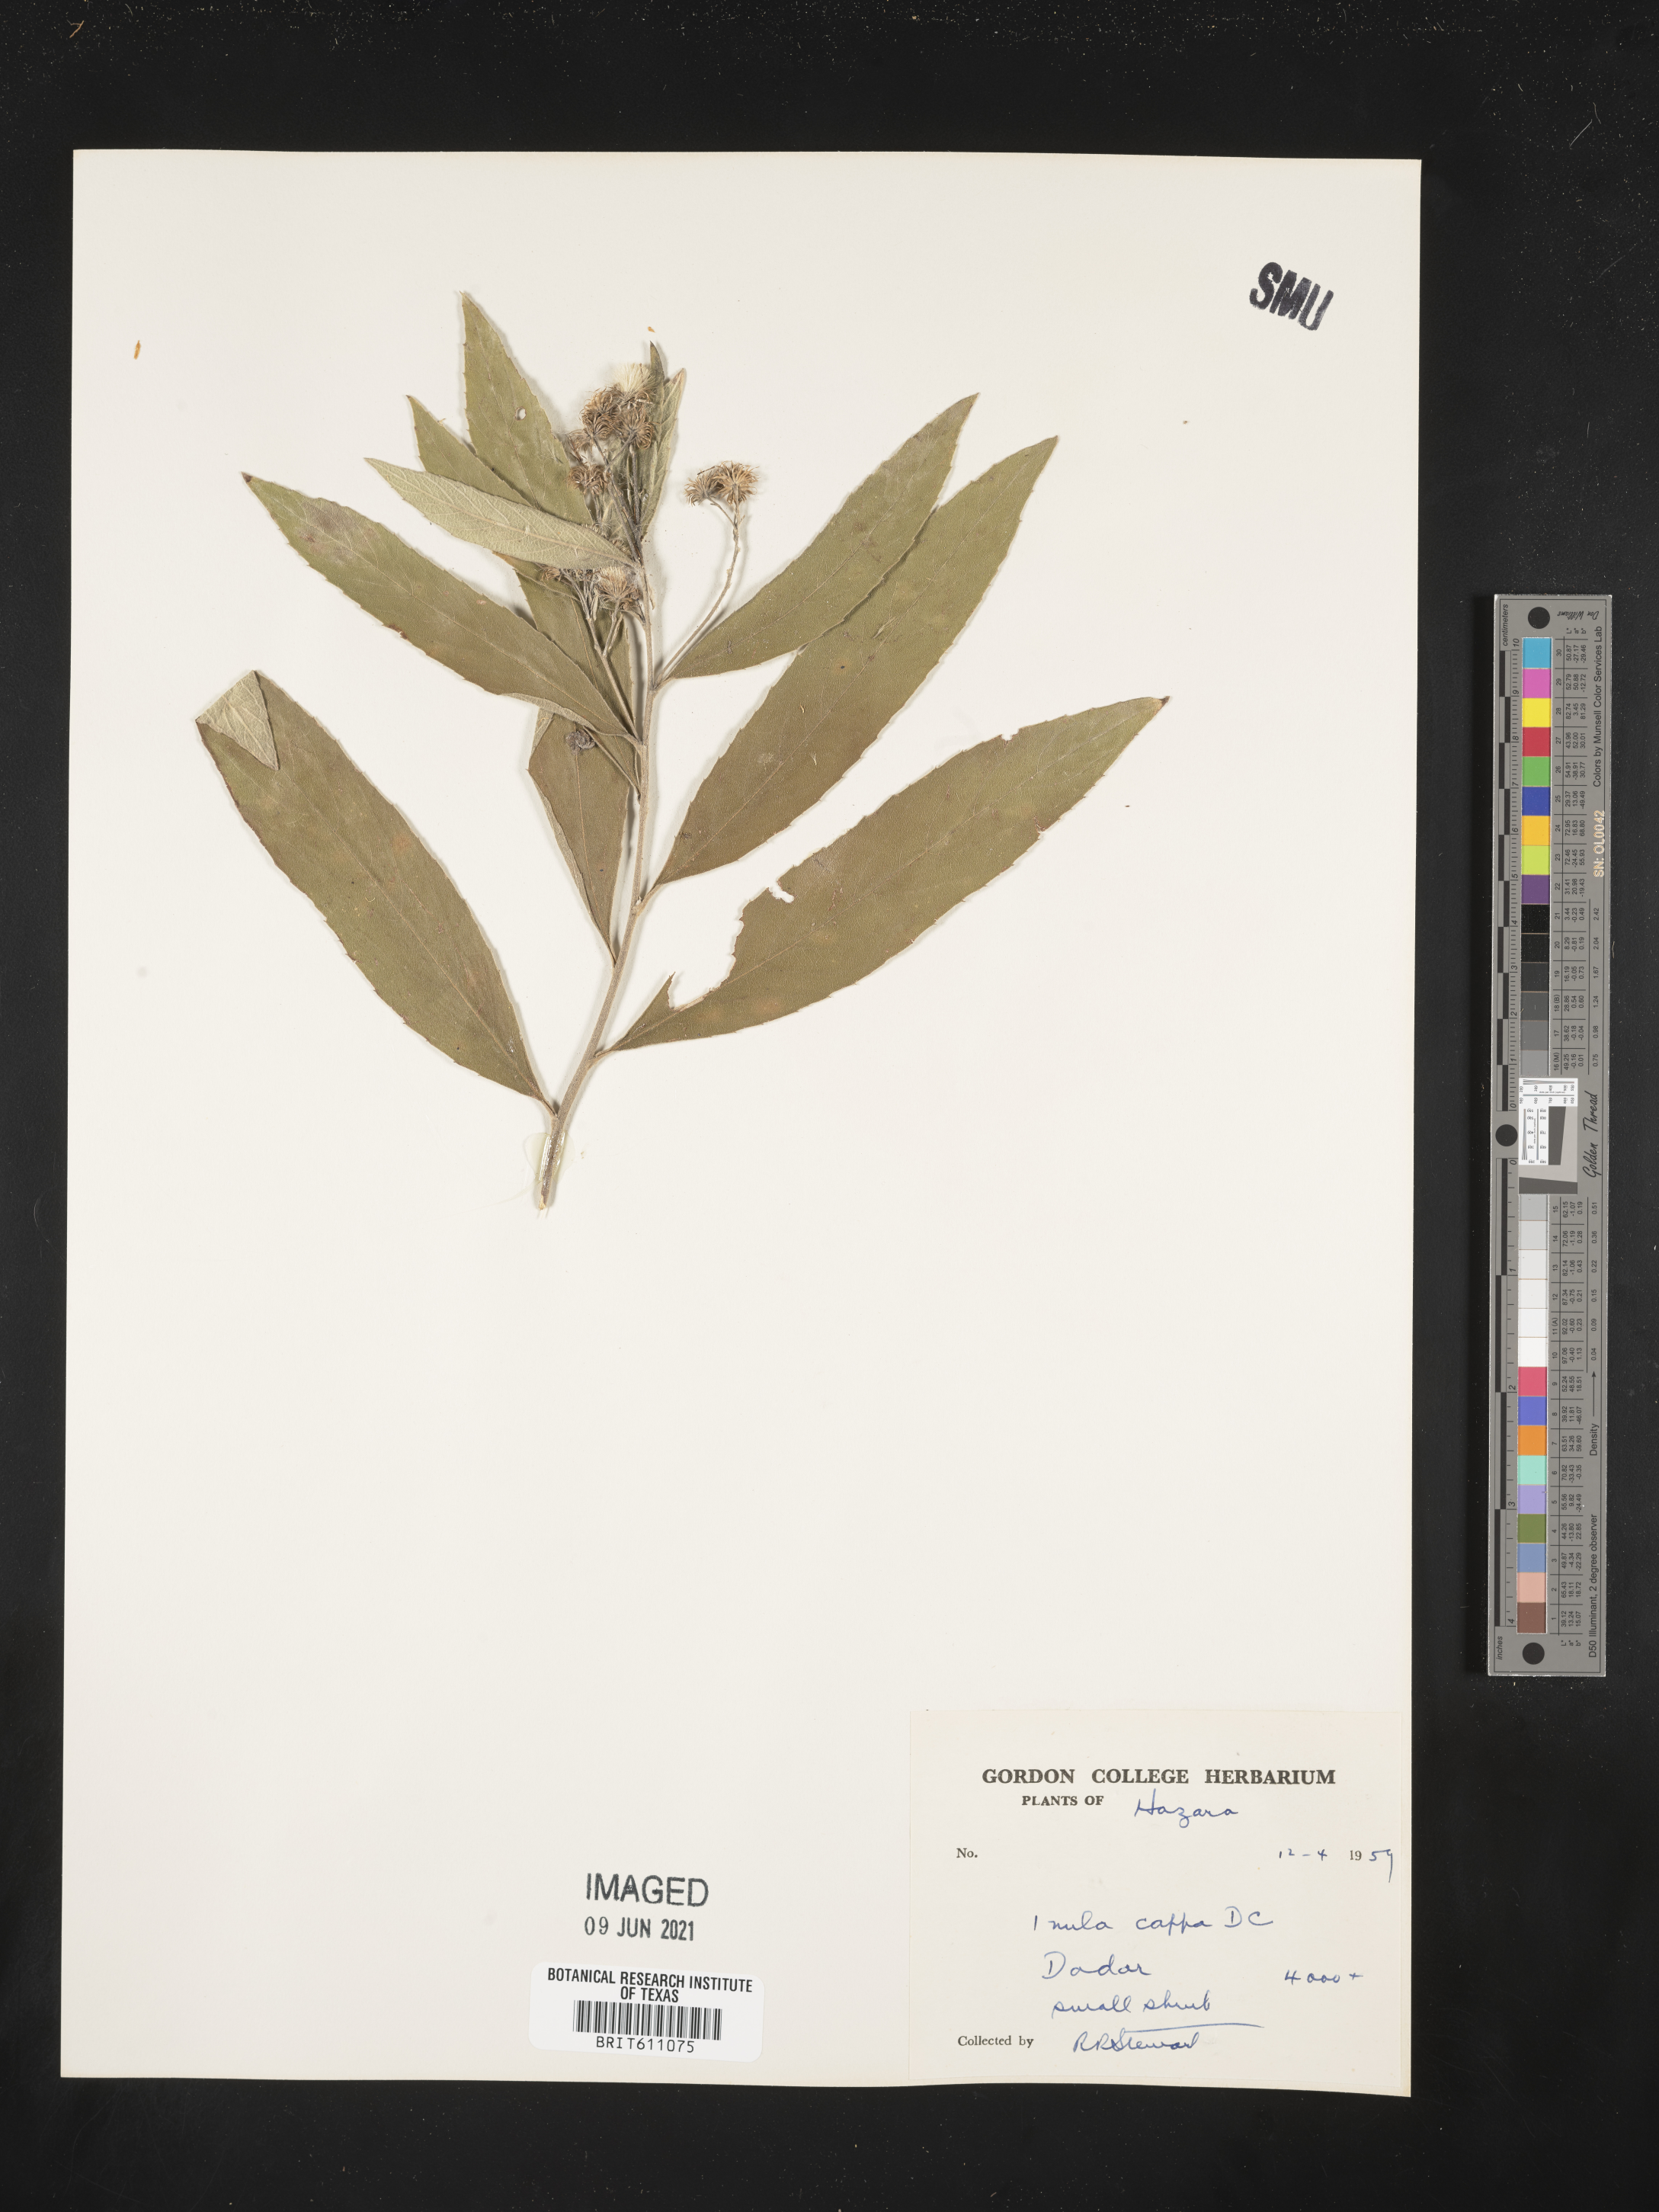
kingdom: Plantae
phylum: Tracheophyta
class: Magnoliopsida
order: Asterales
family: Asteraceae
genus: Duhaldea
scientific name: Duhaldea cappa
